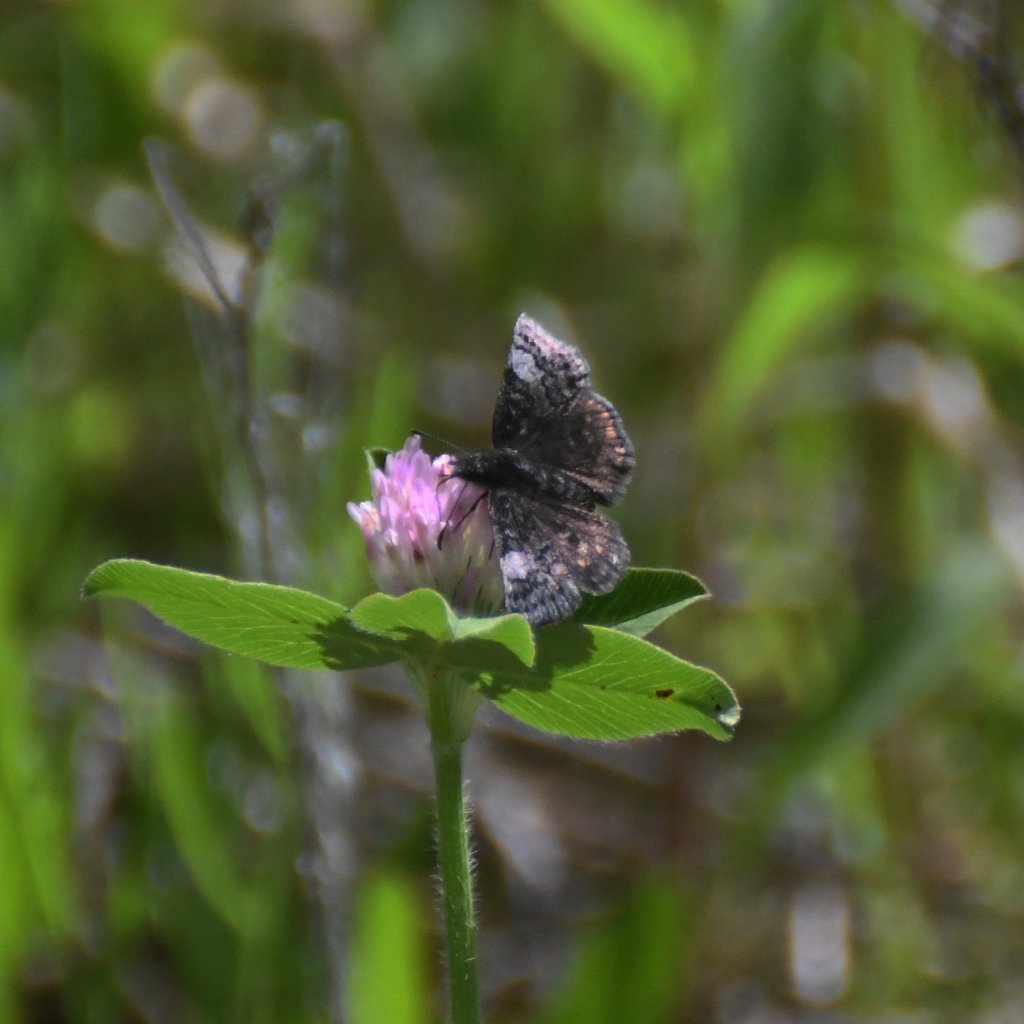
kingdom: Animalia
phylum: Arthropoda
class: Insecta
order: Lepidoptera
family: Hesperiidae
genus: Erynnis
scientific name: Erynnis icelus
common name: Dreamy Duskywing
